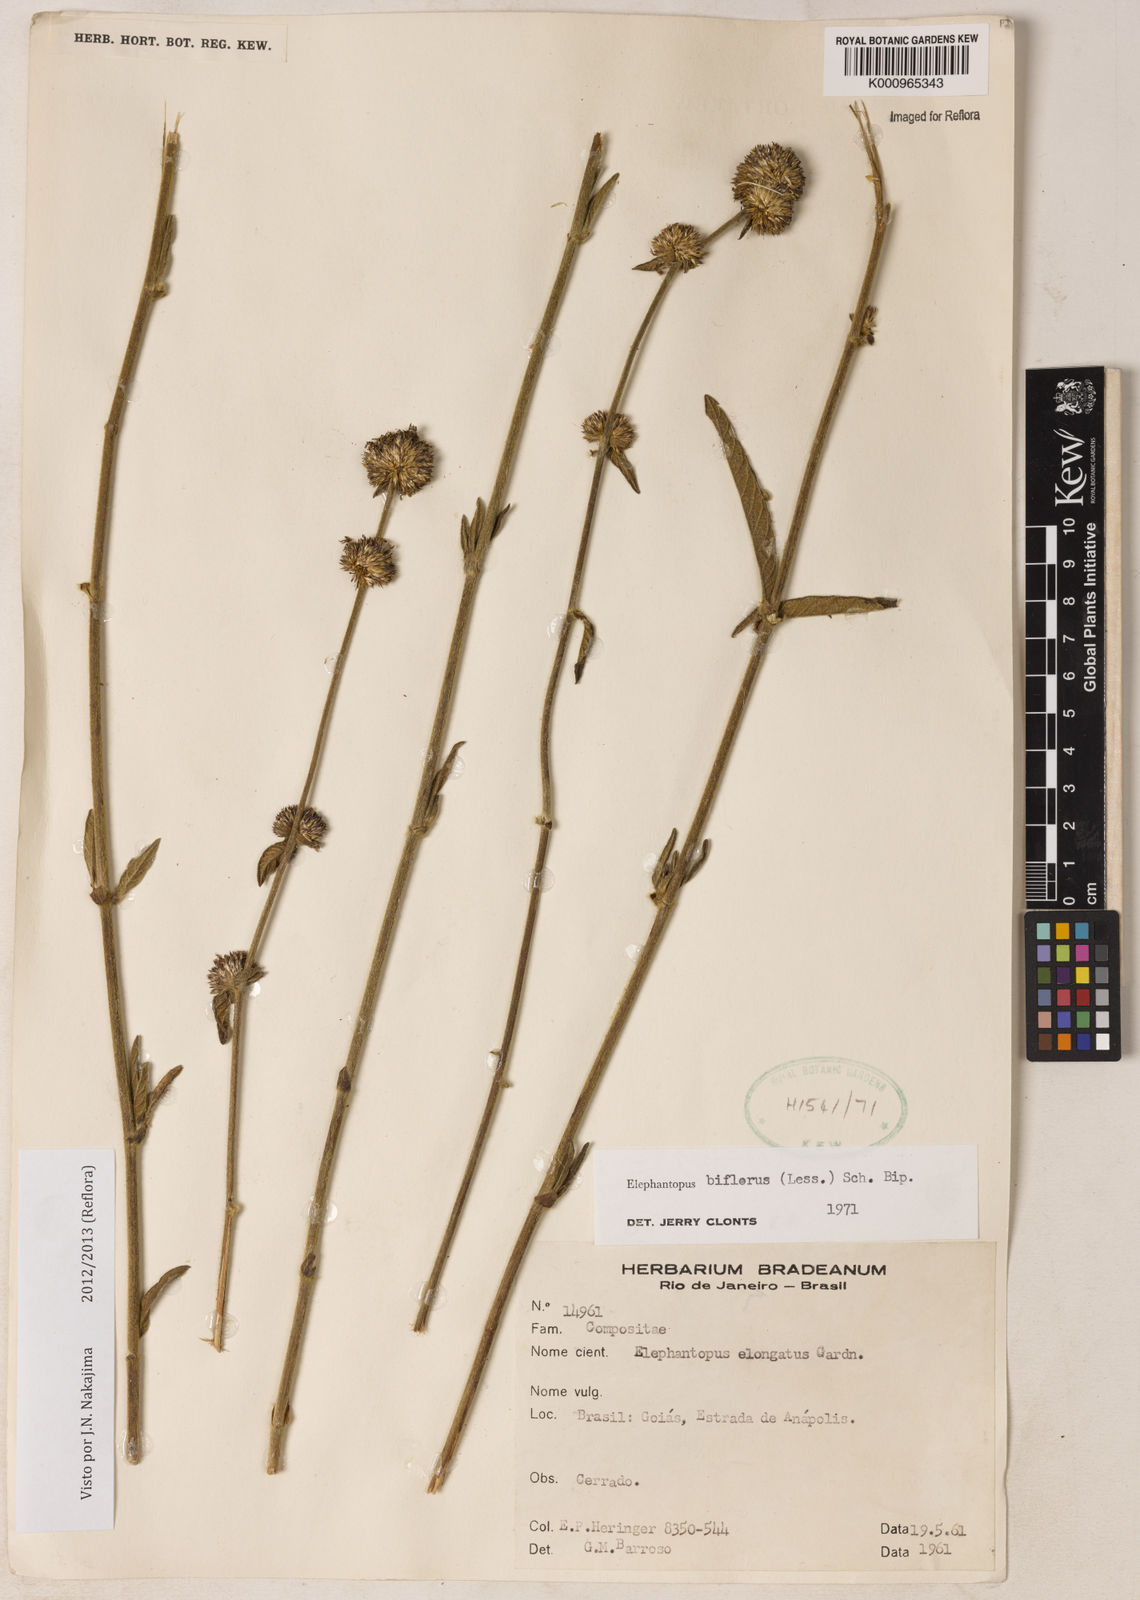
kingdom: Plantae
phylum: Tracheophyta
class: Magnoliopsida
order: Asterales
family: Asteraceae
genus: Elephantopus
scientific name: Elephantopus biflorus
